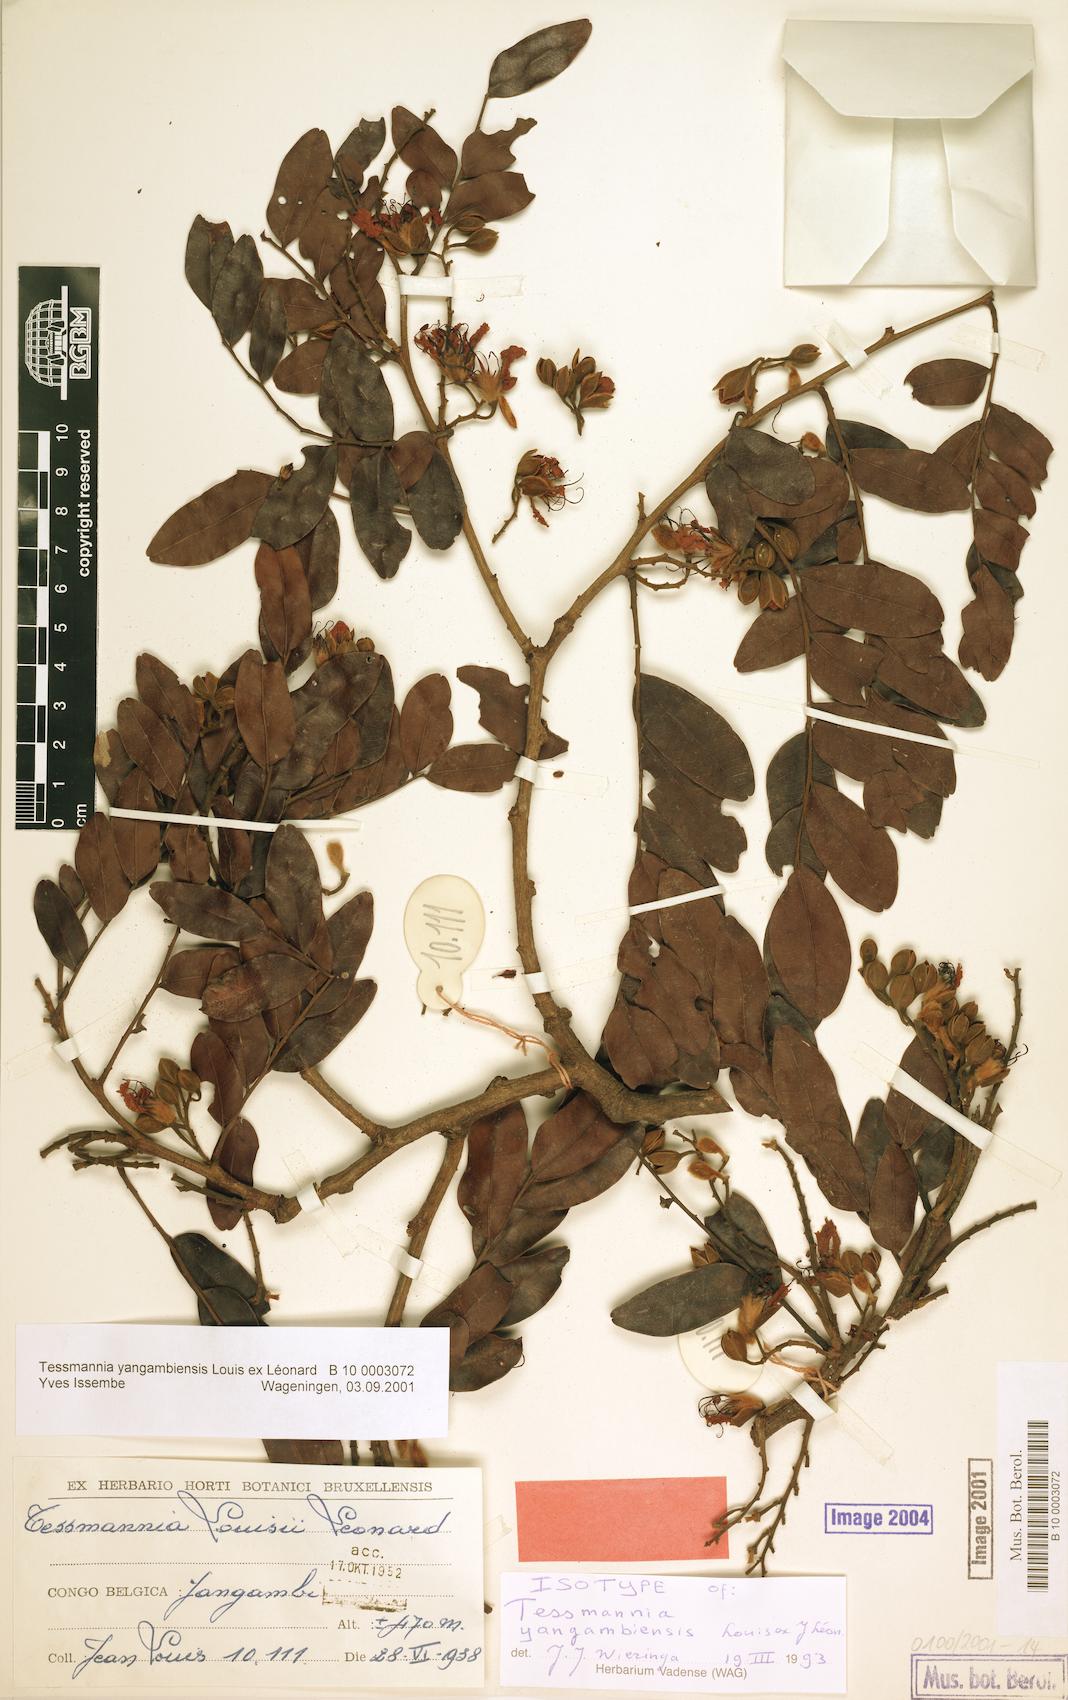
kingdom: Plantae
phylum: Tracheophyta
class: Magnoliopsida
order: Fabales
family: Fabaceae
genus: Tessmannia
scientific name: Tessmannia yangambiensis
